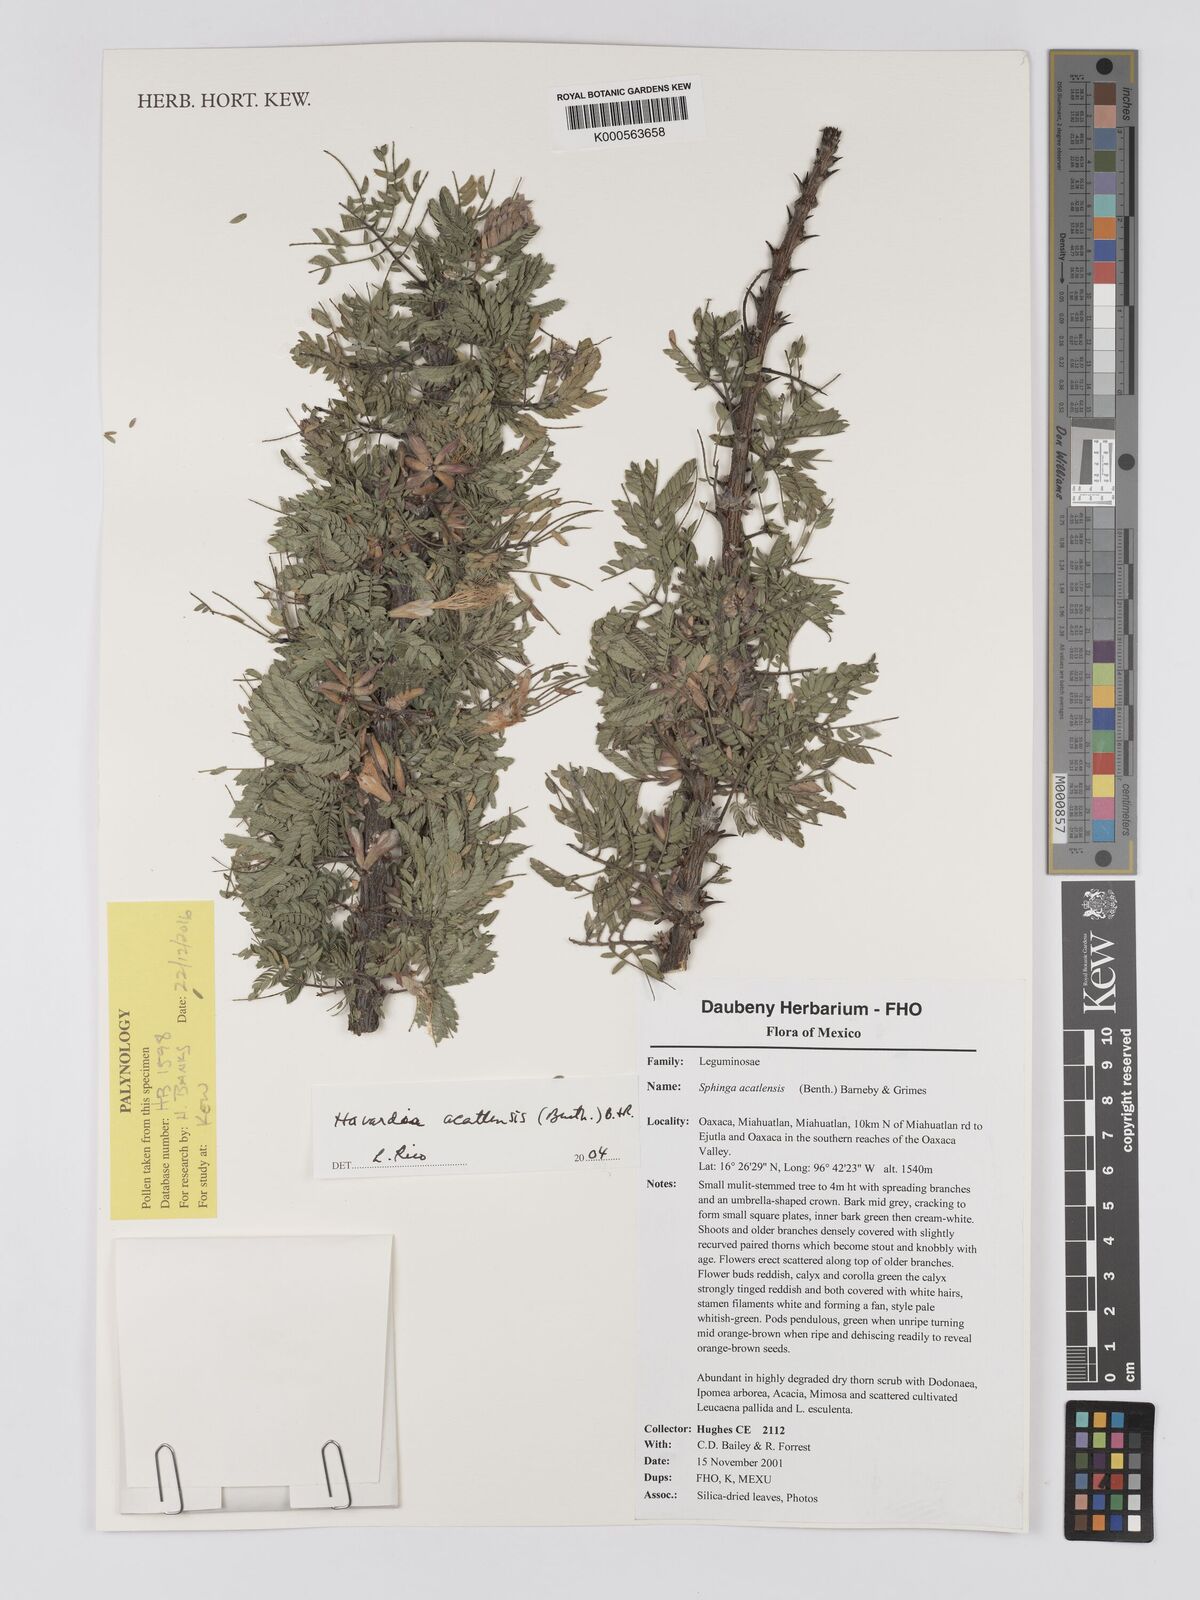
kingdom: Plantae
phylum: Tracheophyta
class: Magnoliopsida
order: Fabales
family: Fabaceae
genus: Havardia
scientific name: Havardia acatlensis
